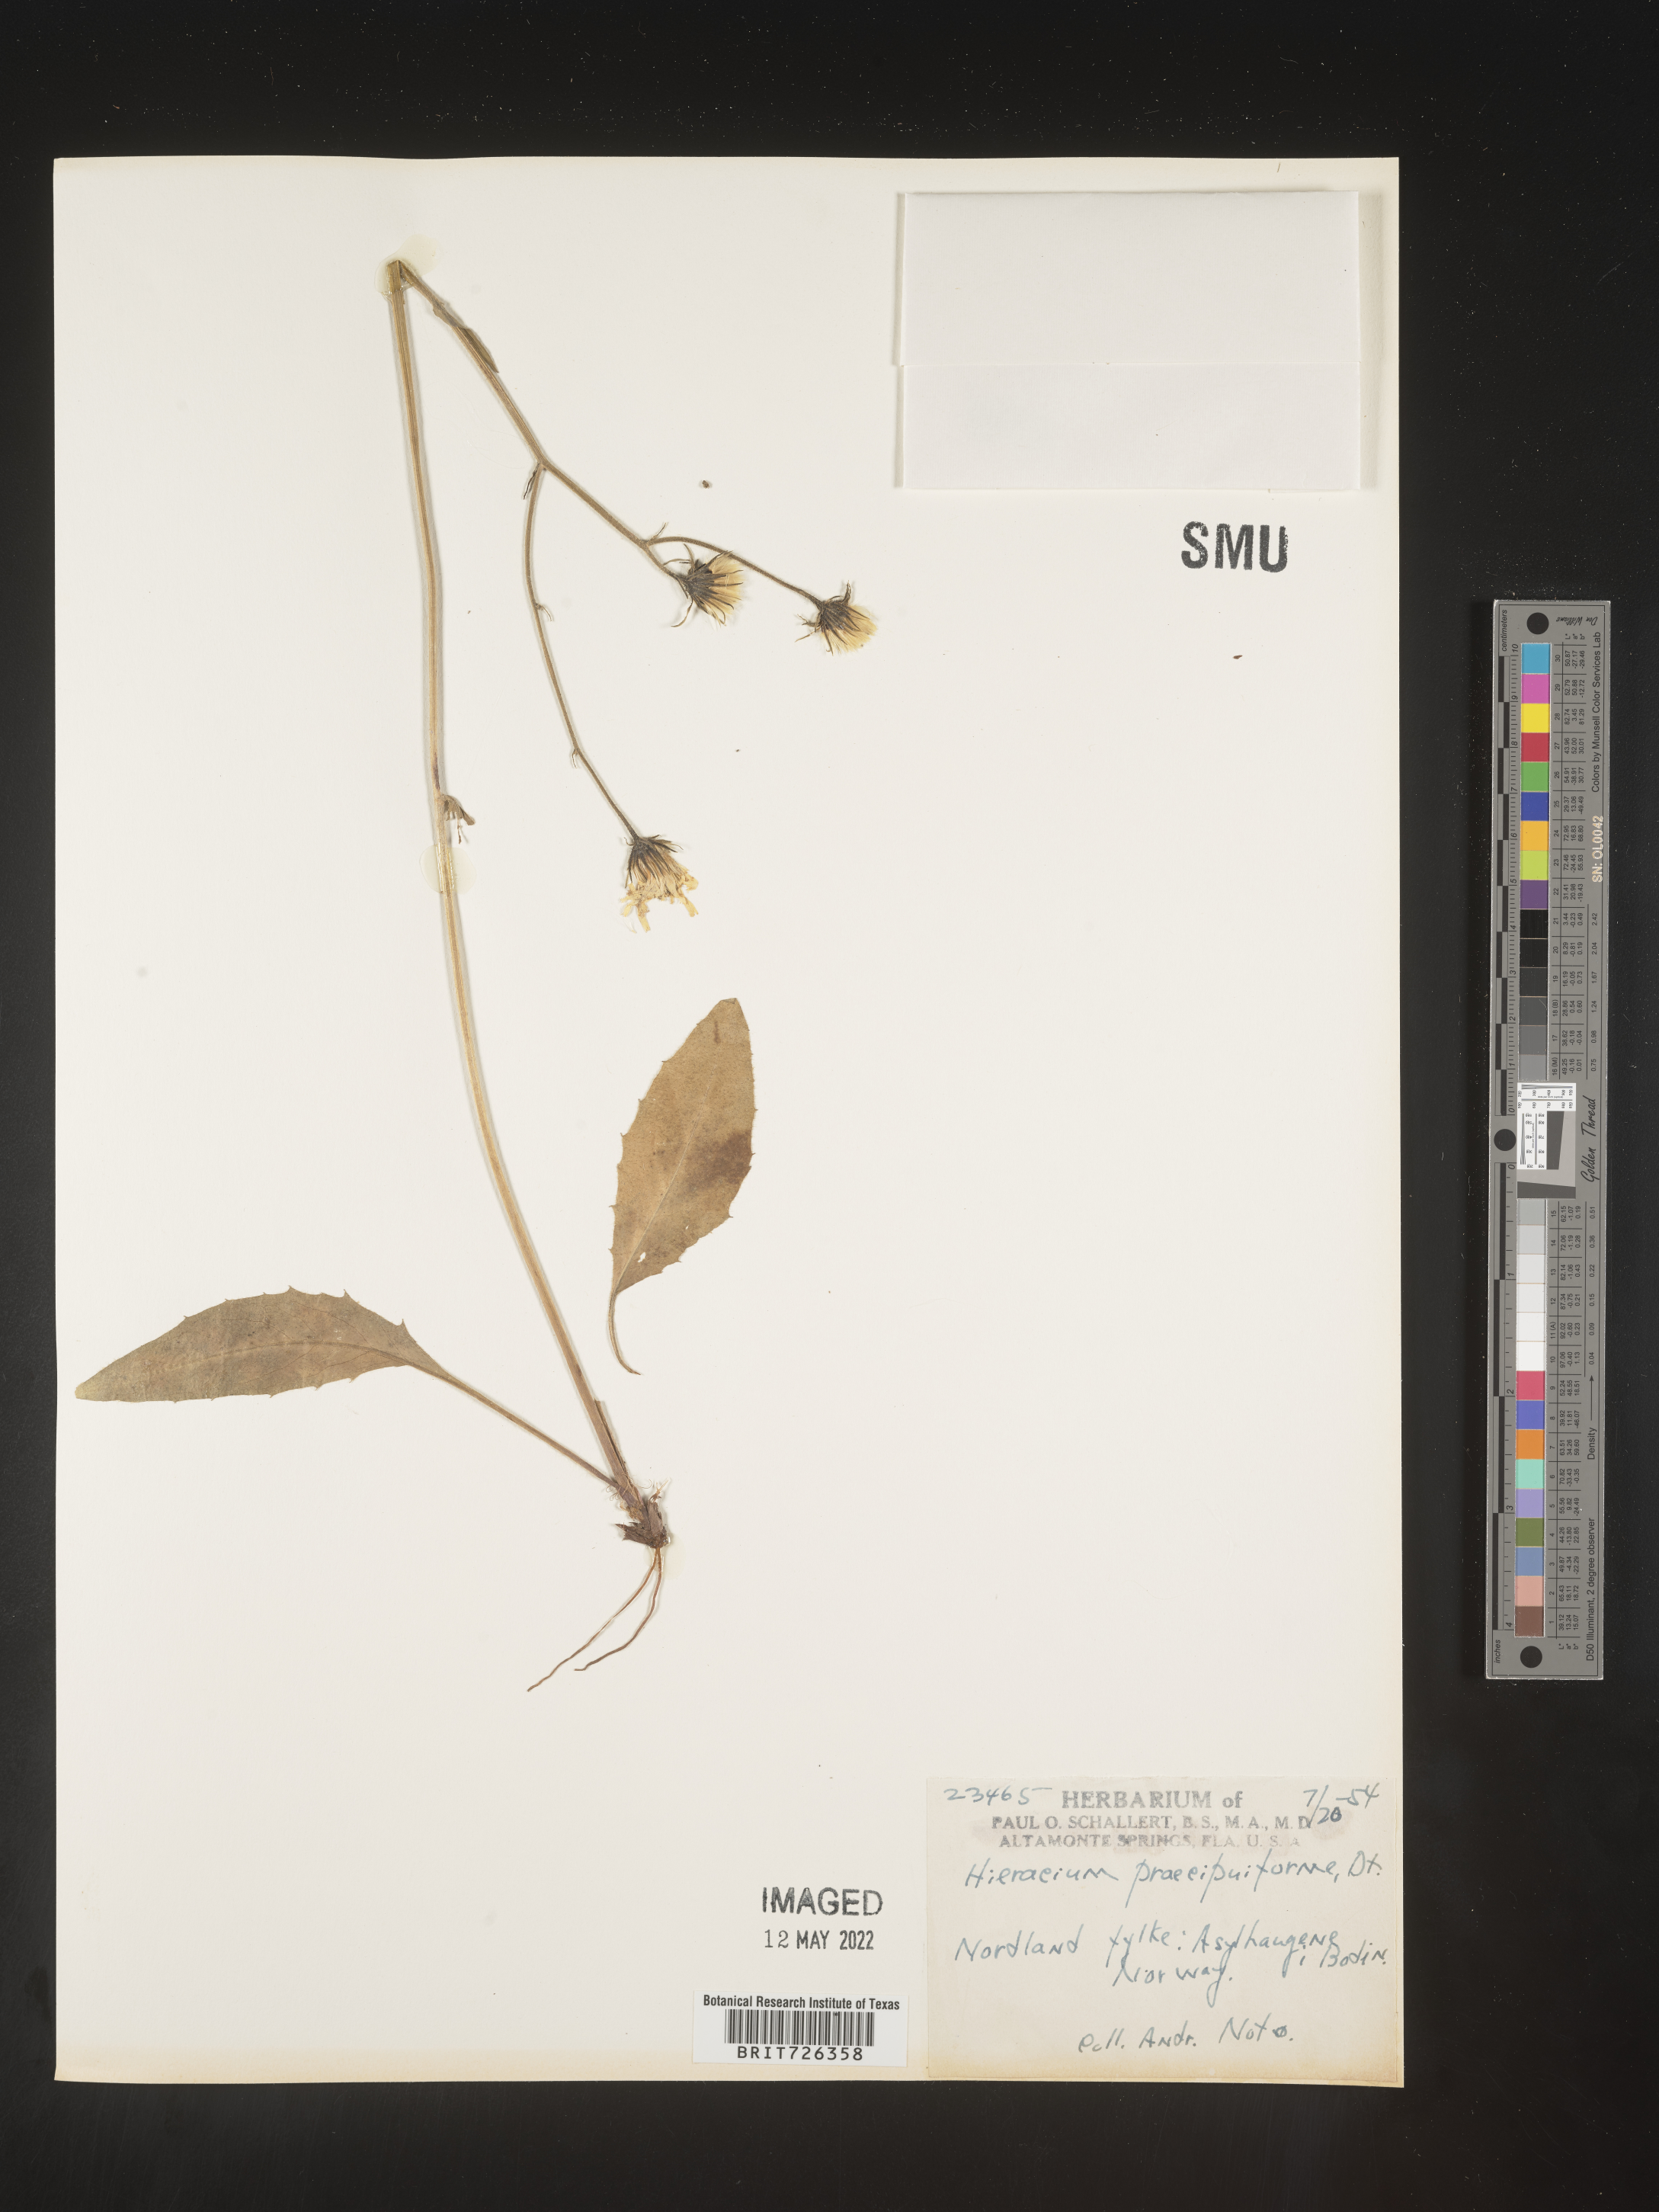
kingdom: Plantae
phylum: Tracheophyta
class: Magnoliopsida
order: Asterales
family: Asteraceae
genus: Hieracium
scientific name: Hieracium
